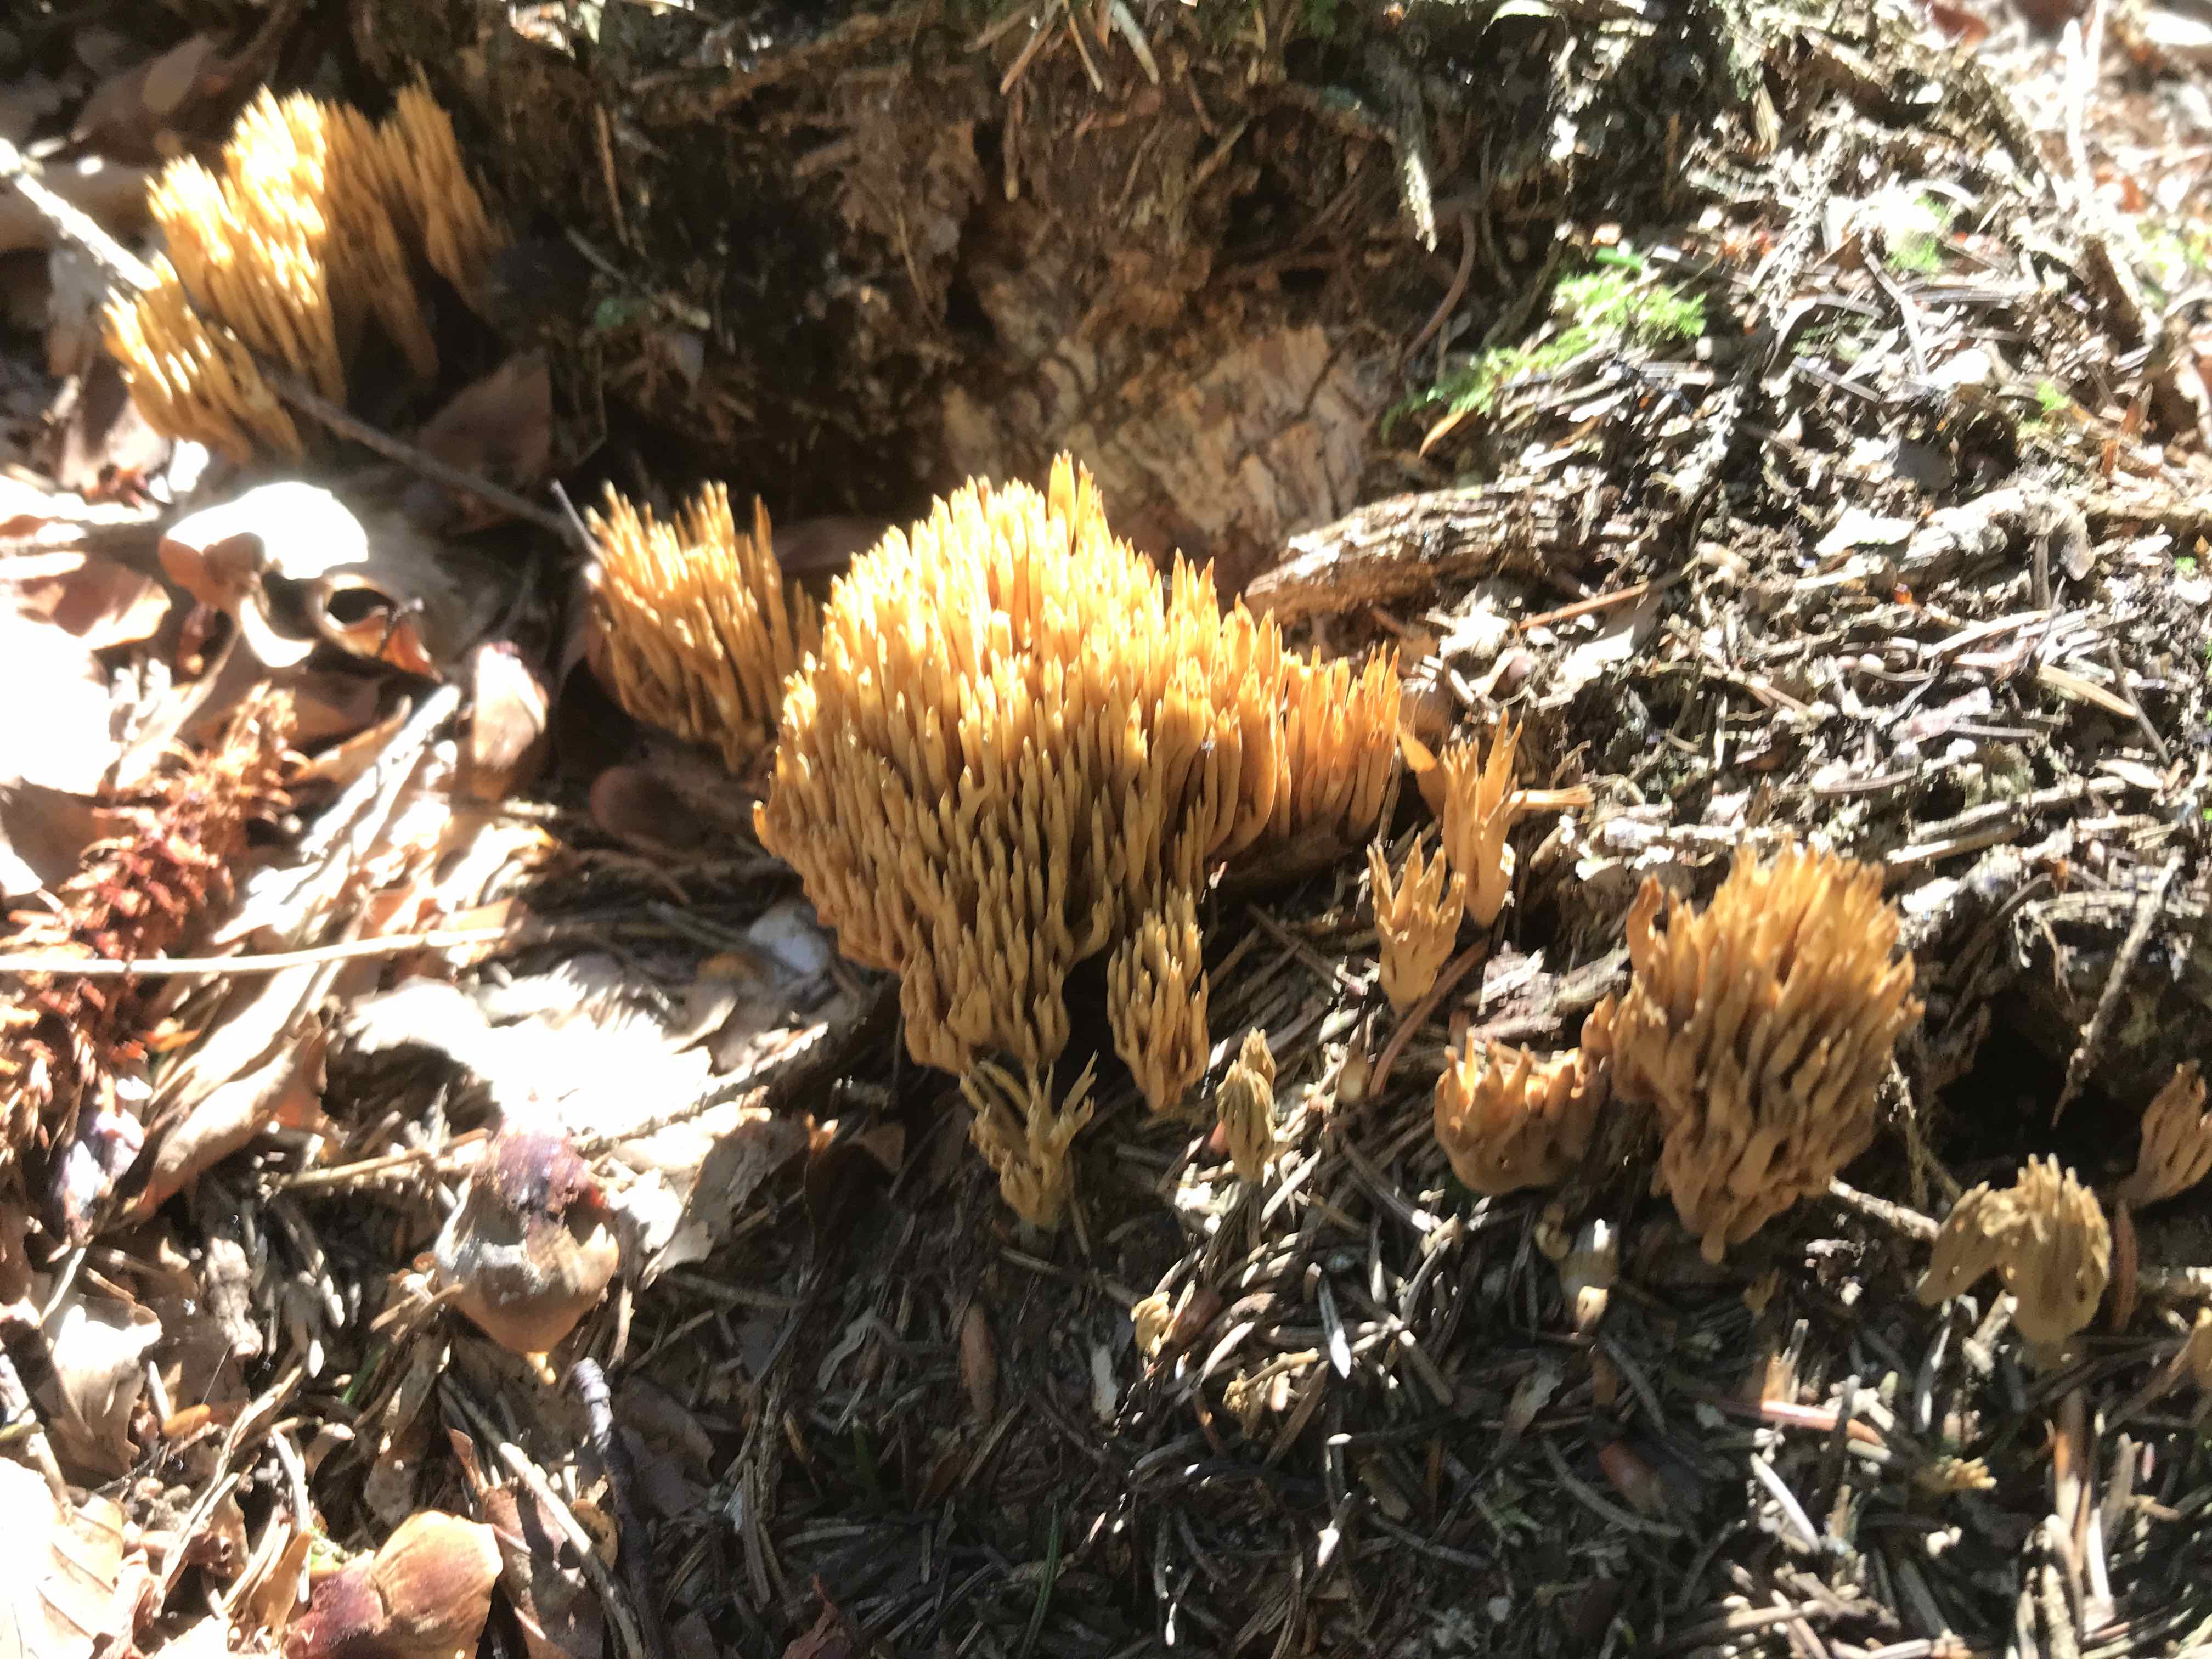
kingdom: Fungi
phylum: Basidiomycota
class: Agaricomycetes
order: Gomphales
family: Gomphaceae
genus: Phaeoclavulina
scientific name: Phaeoclavulina
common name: koralsvamp
